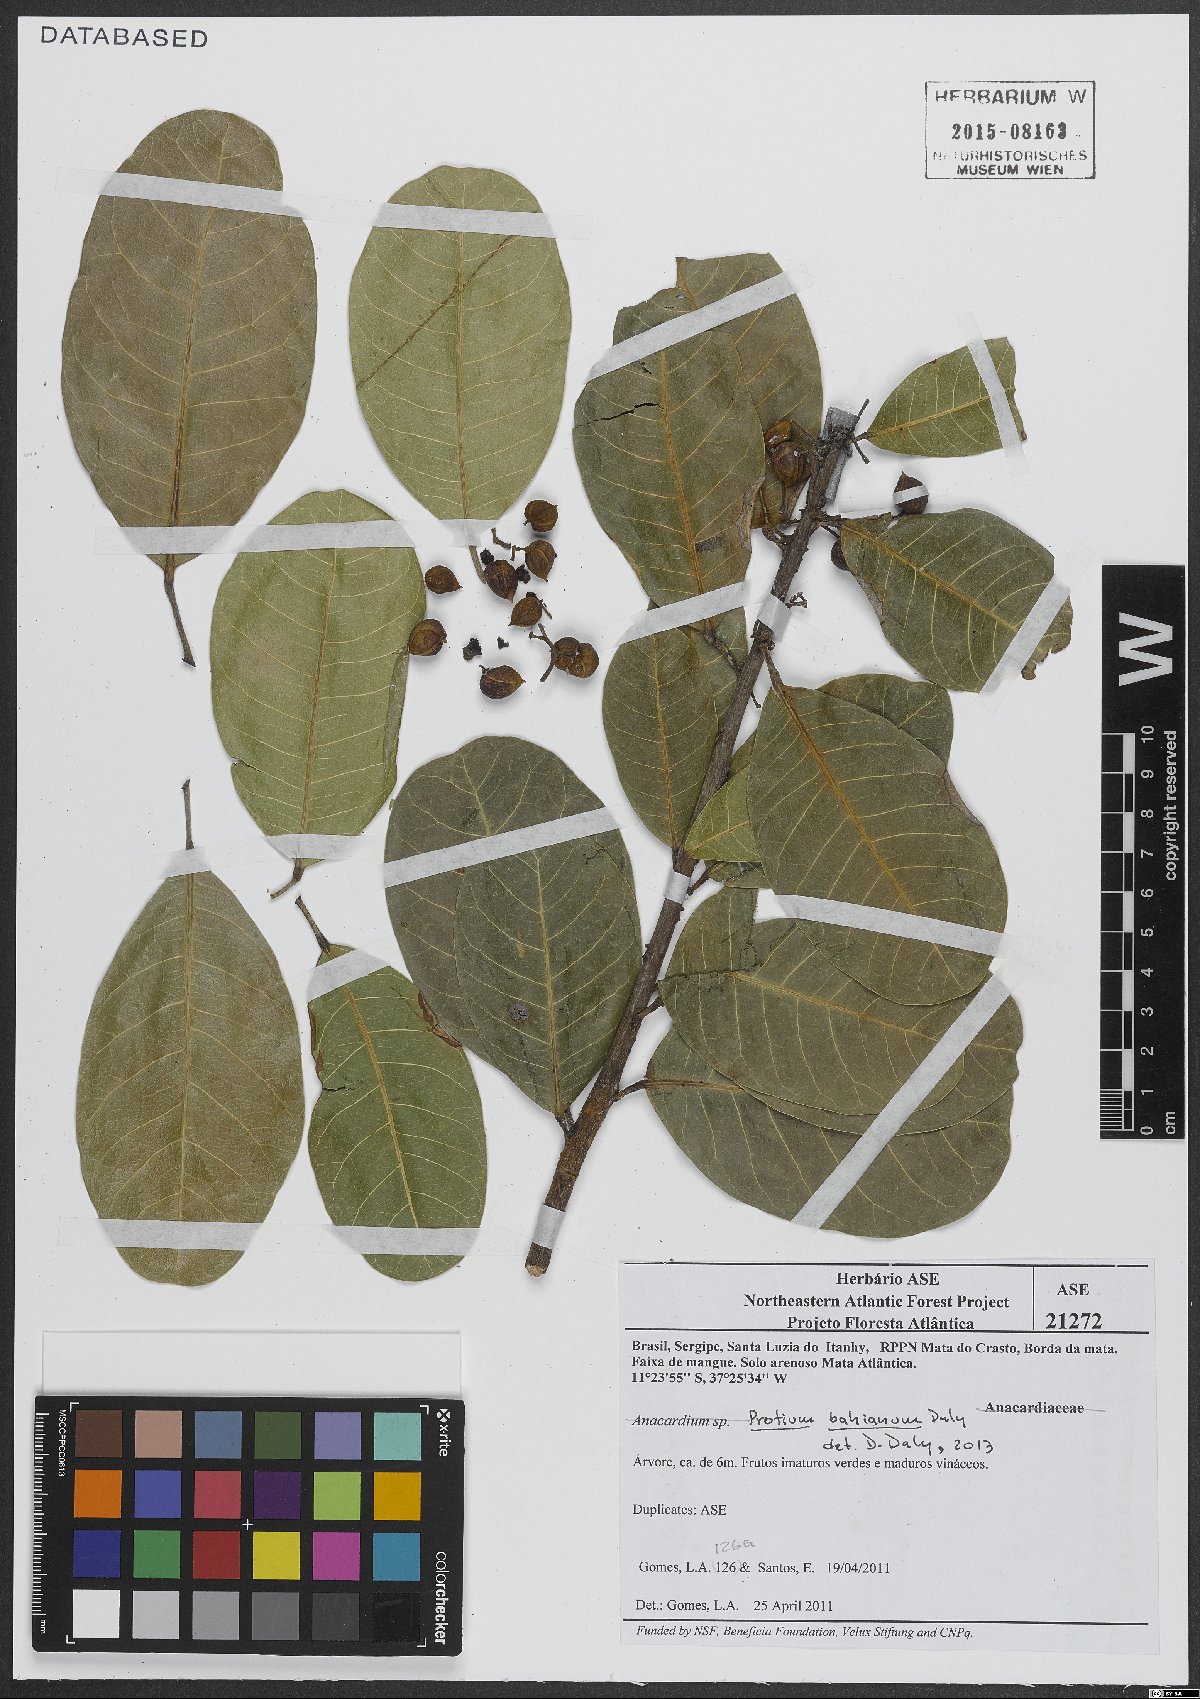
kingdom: Plantae
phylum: Tracheophyta
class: Magnoliopsida
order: Sapindales
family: Burseraceae
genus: Protium
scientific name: Protium bahianum
